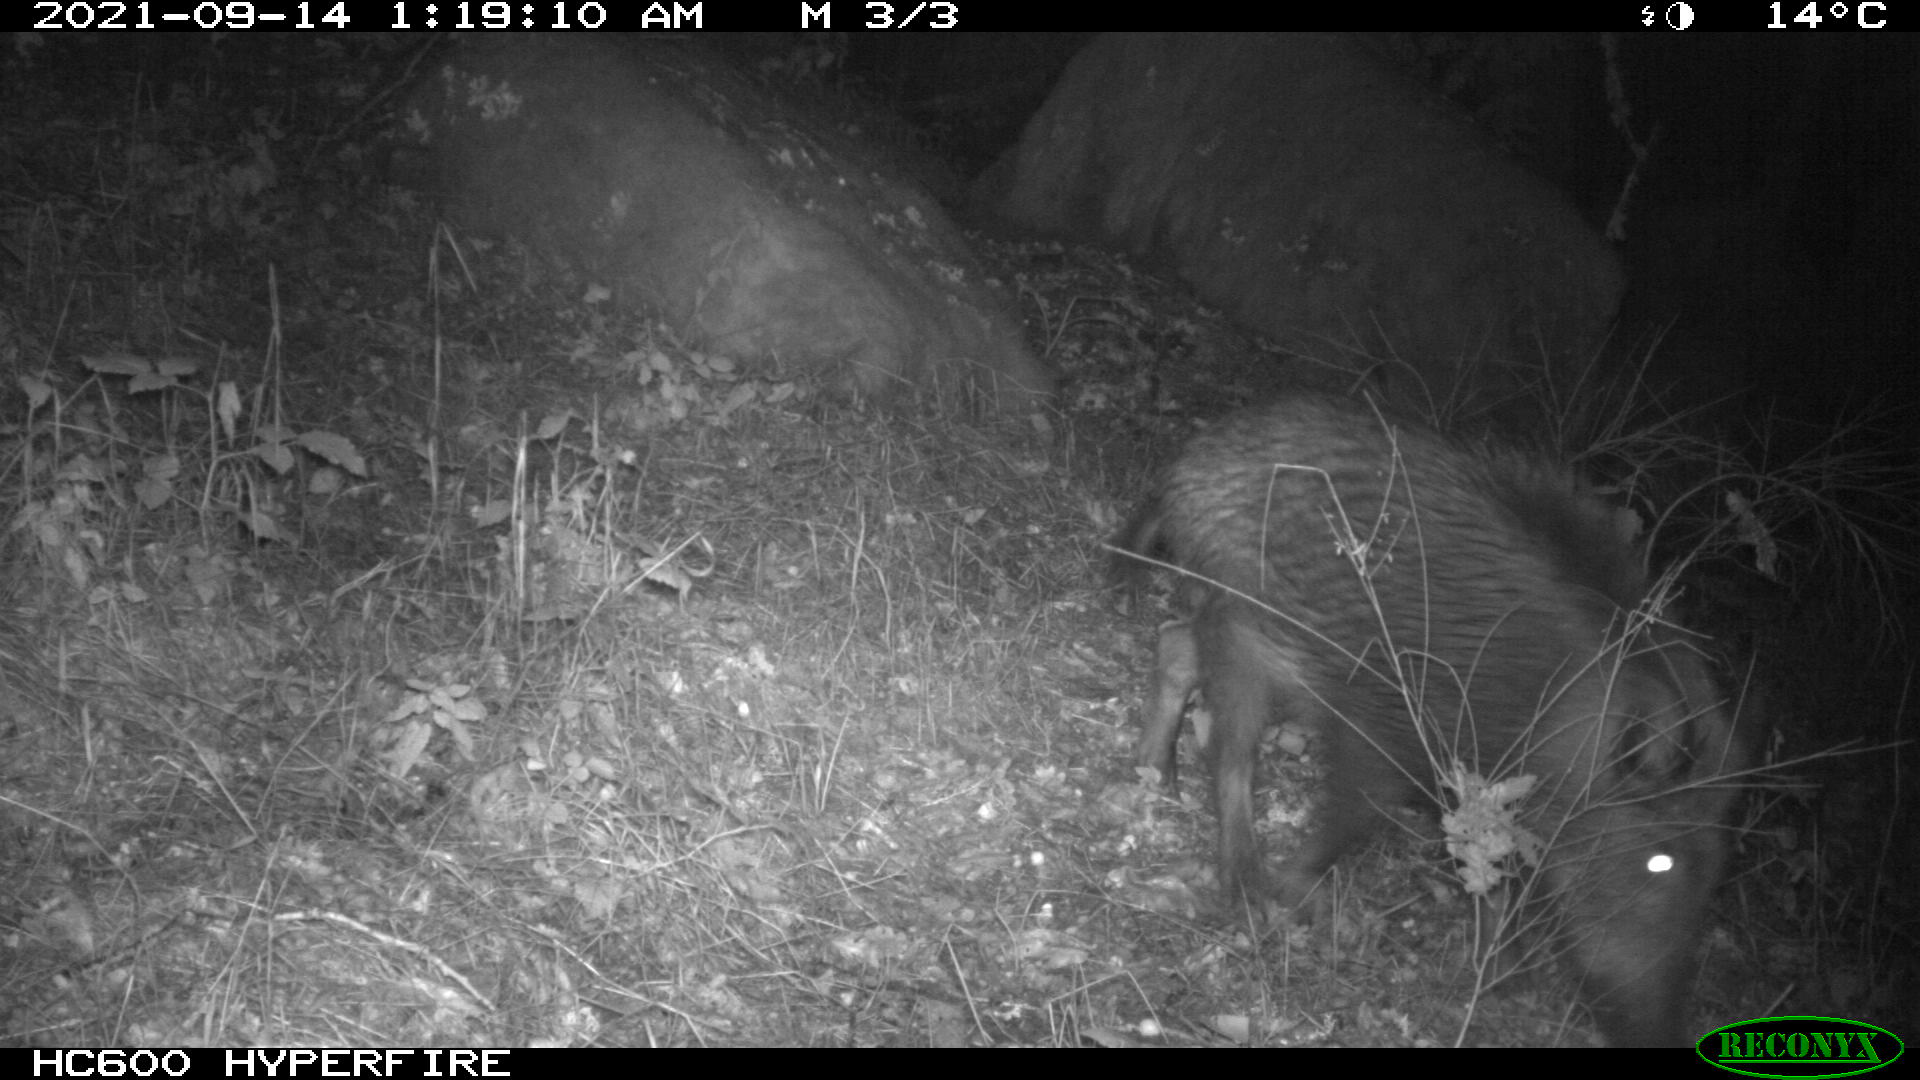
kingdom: Animalia
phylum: Chordata
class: Mammalia
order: Artiodactyla
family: Suidae
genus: Sus
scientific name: Sus scrofa
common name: Wild boar
